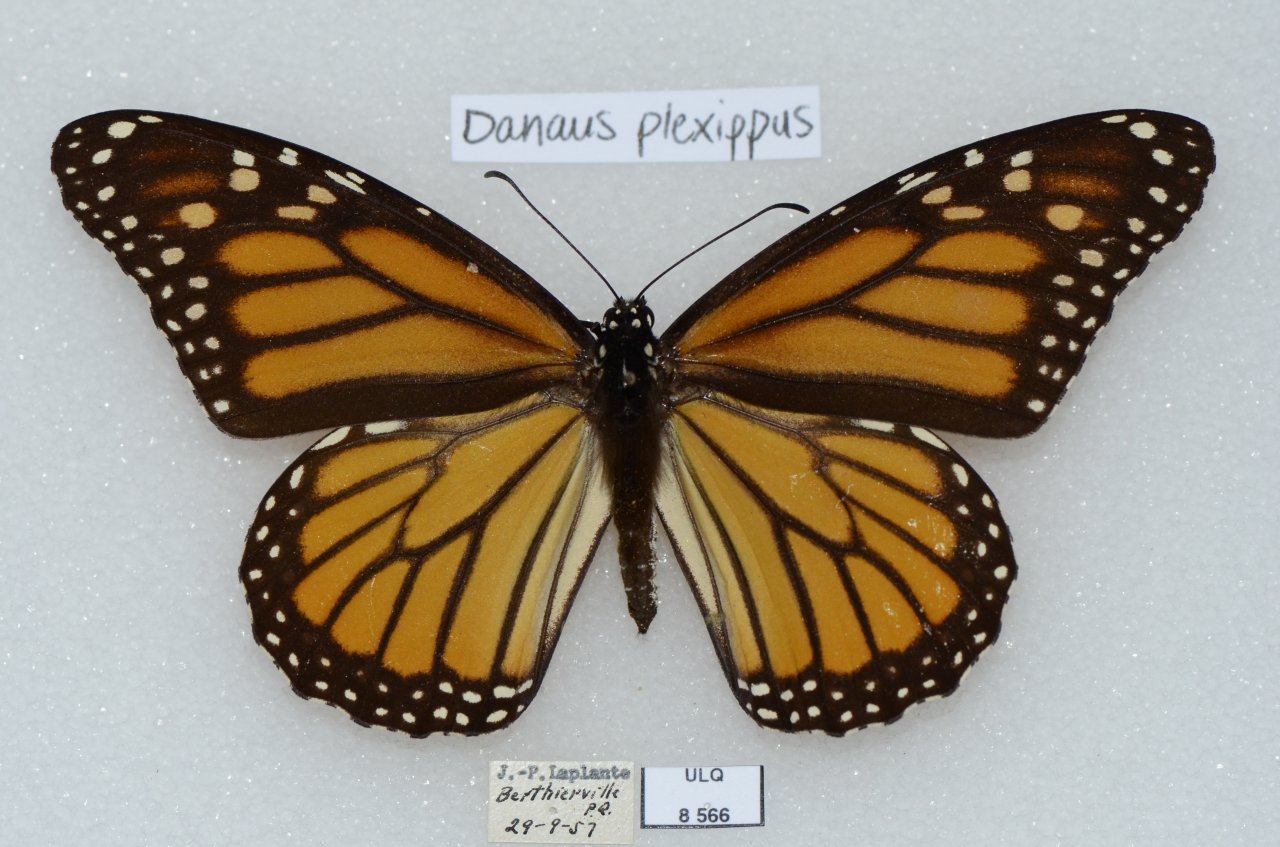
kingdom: Animalia
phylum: Arthropoda
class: Insecta
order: Lepidoptera
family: Nymphalidae
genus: Danaus
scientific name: Danaus plexippus
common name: Monarch
